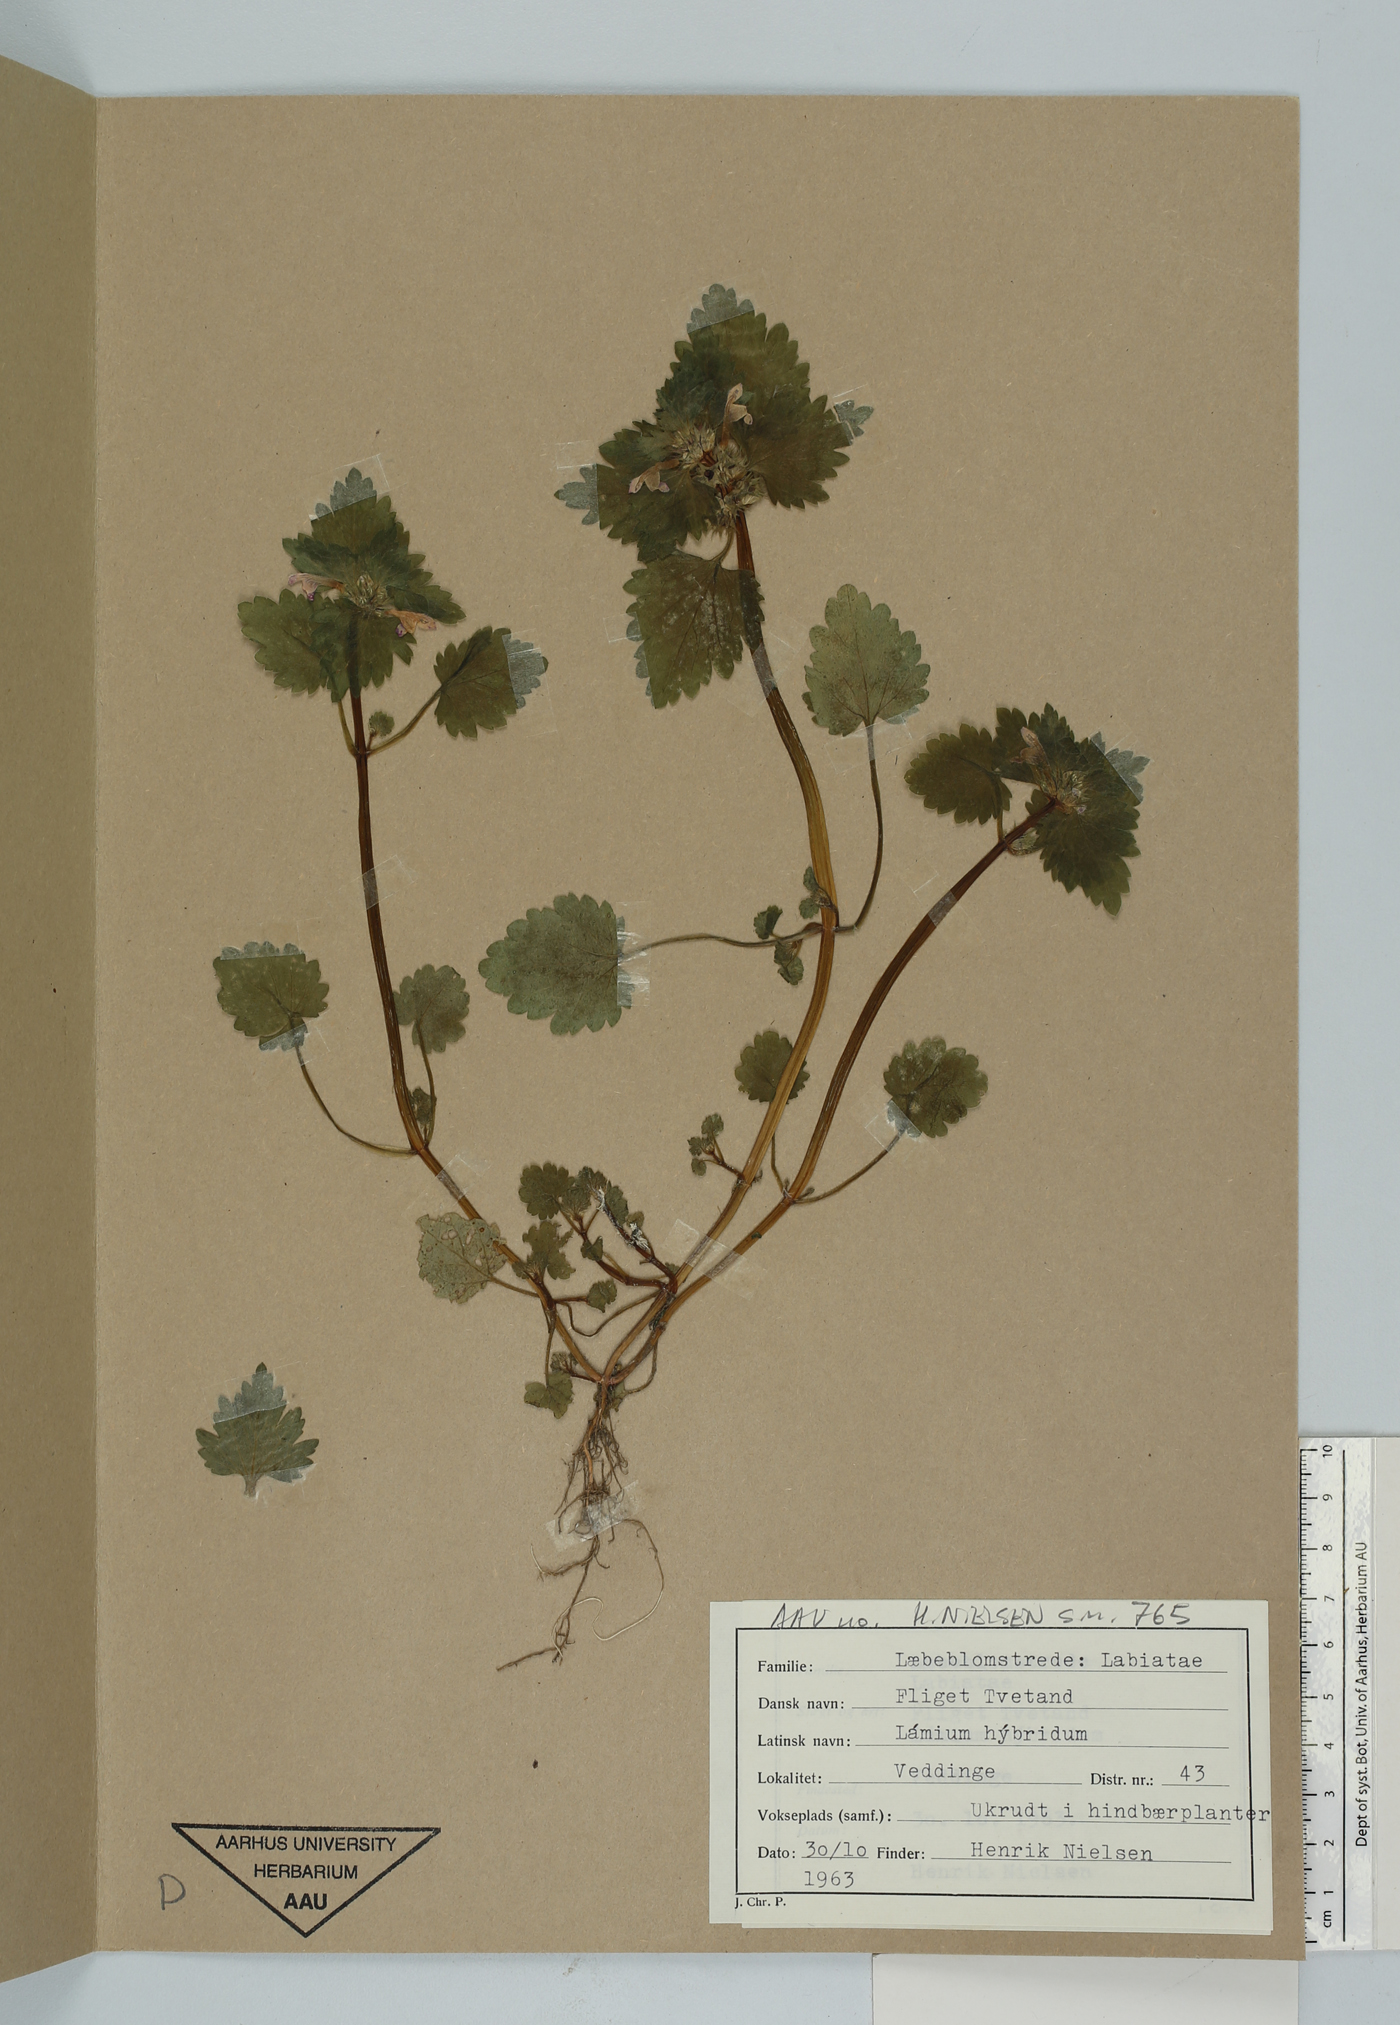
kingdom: Plantae
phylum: Tracheophyta
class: Magnoliopsida
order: Lamiales
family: Lamiaceae
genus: Lamium
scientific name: Lamium hybridum
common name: Cut-leaved dead-nettle
